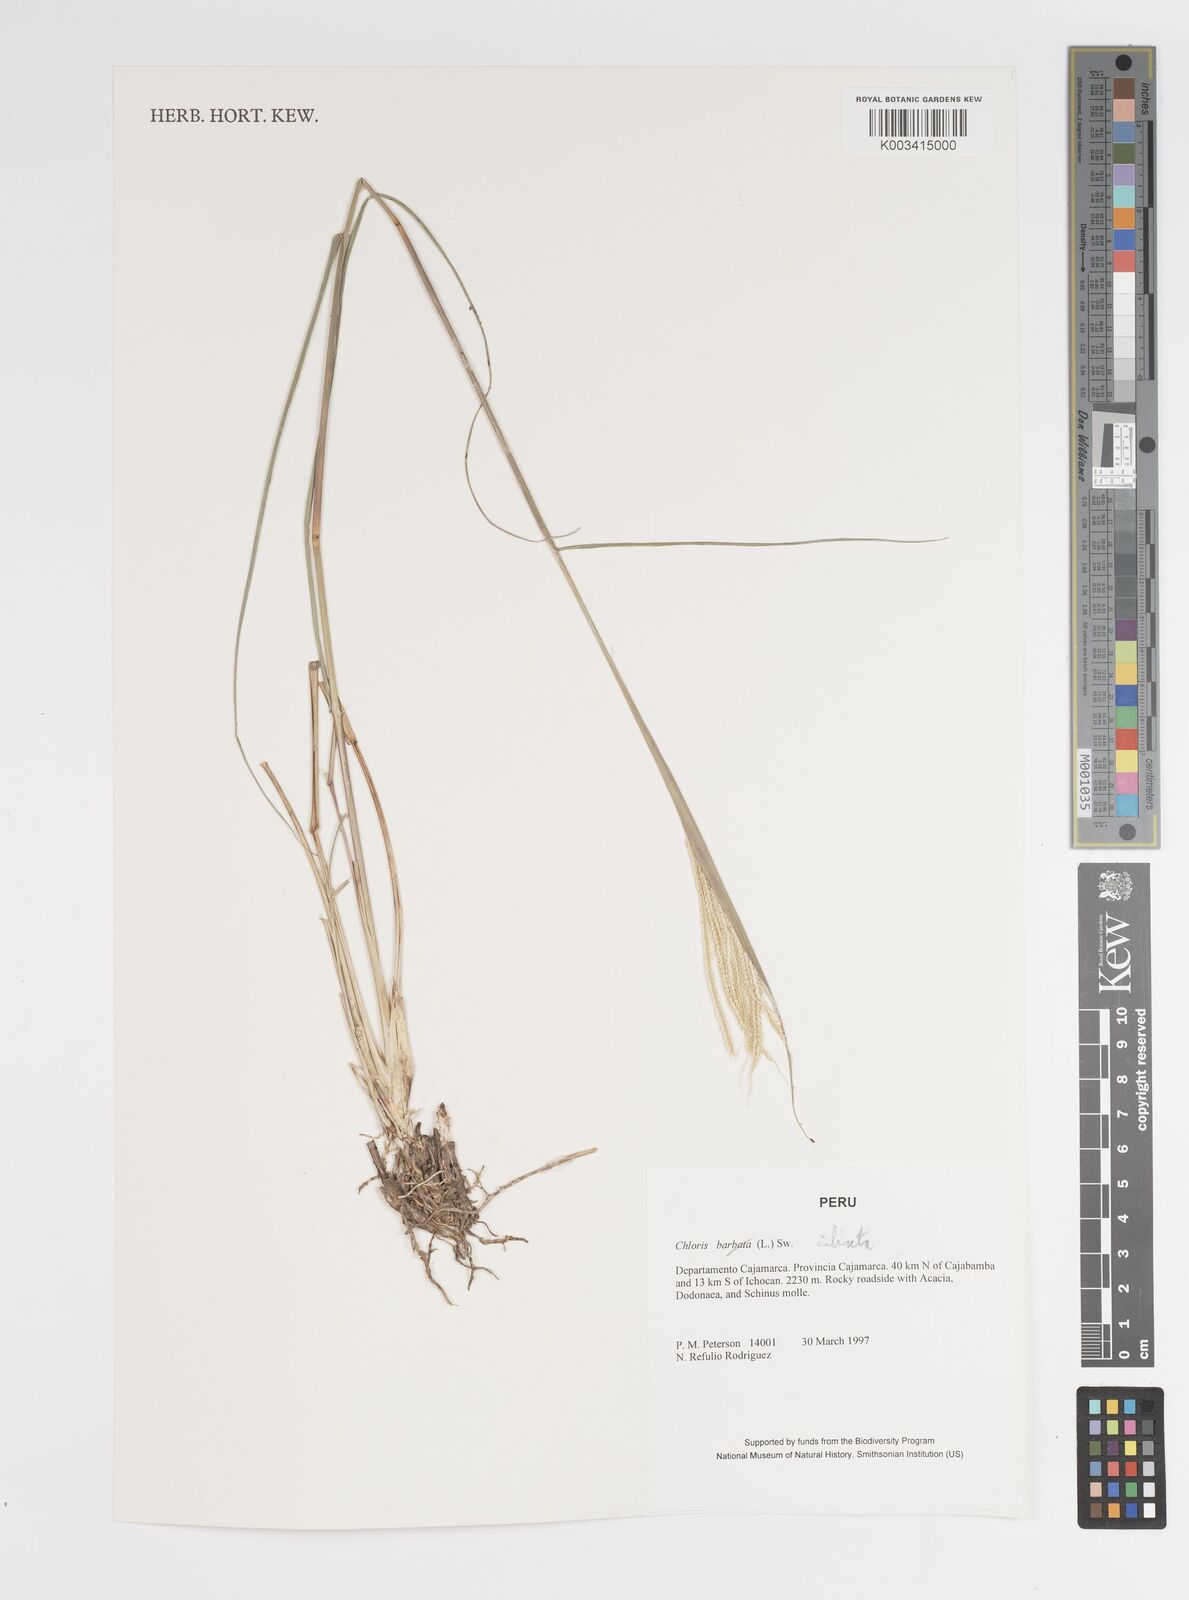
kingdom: Plantae
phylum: Tracheophyta
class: Liliopsida
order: Poales
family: Poaceae
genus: Stapfochloa
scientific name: Stapfochloa ciliata
